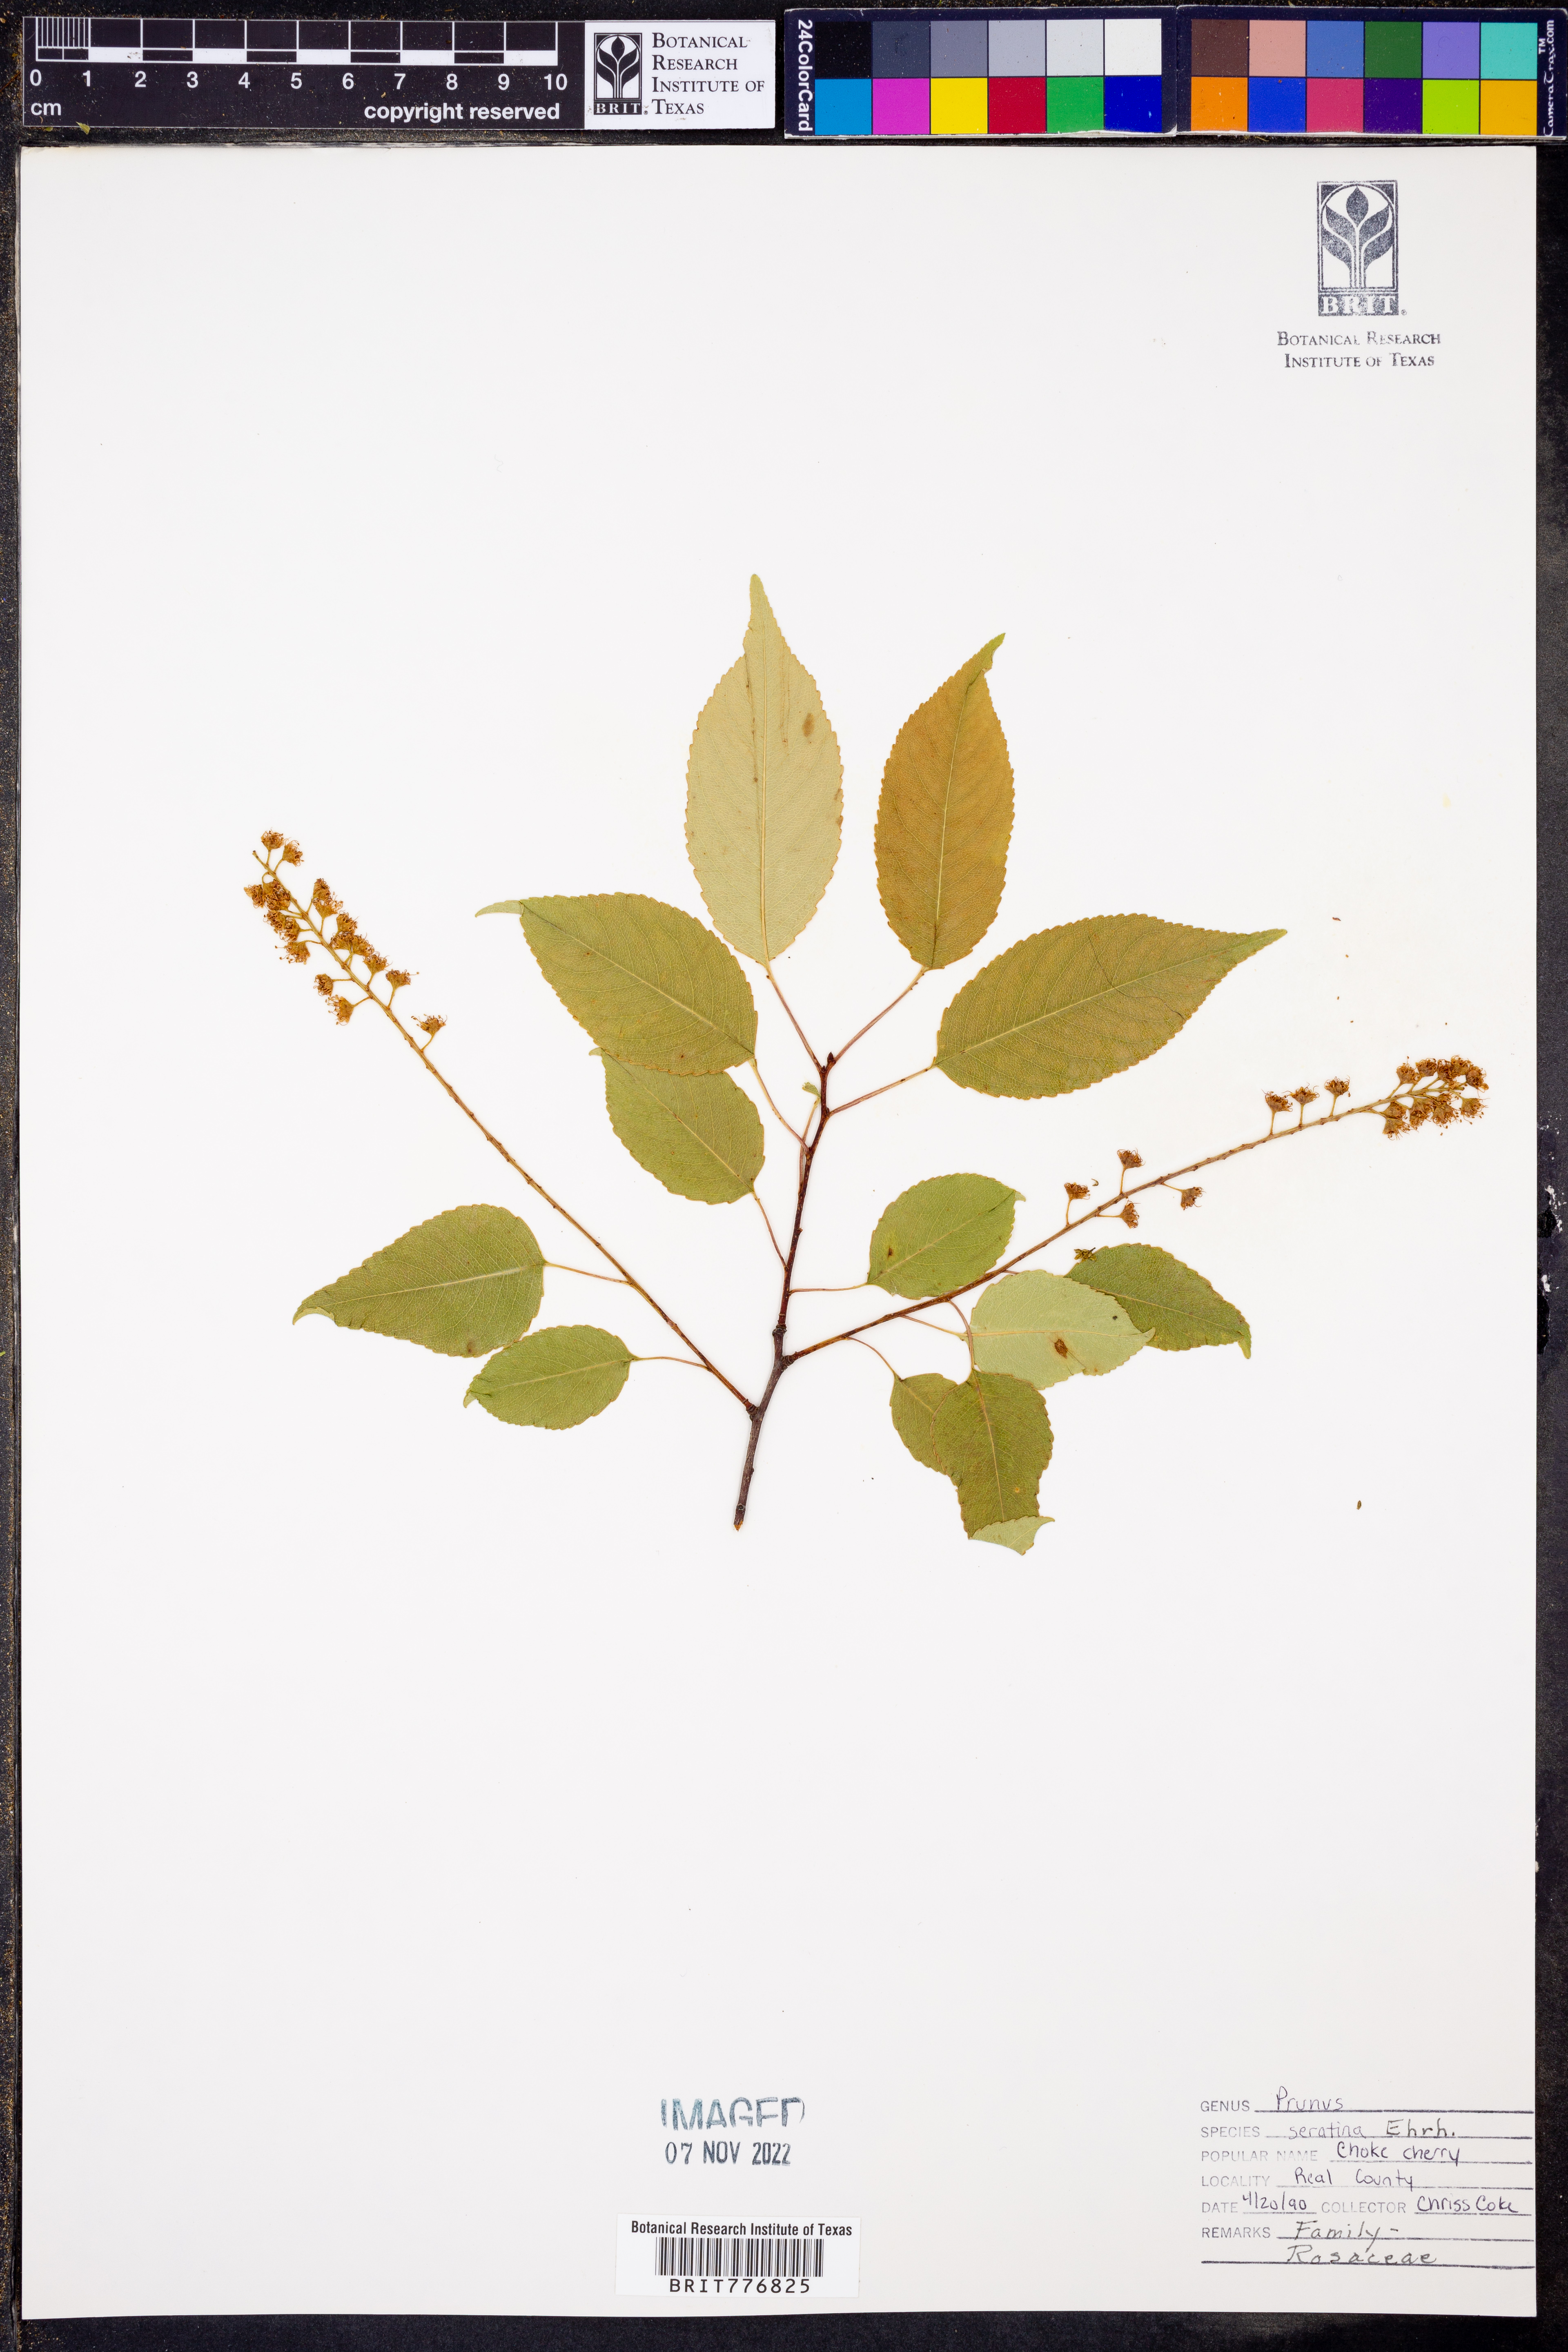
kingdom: Plantae
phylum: Tracheophyta
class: Magnoliopsida
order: Rosales
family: Rosaceae
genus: Prunus
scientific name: Prunus serotina
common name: Black cherry
